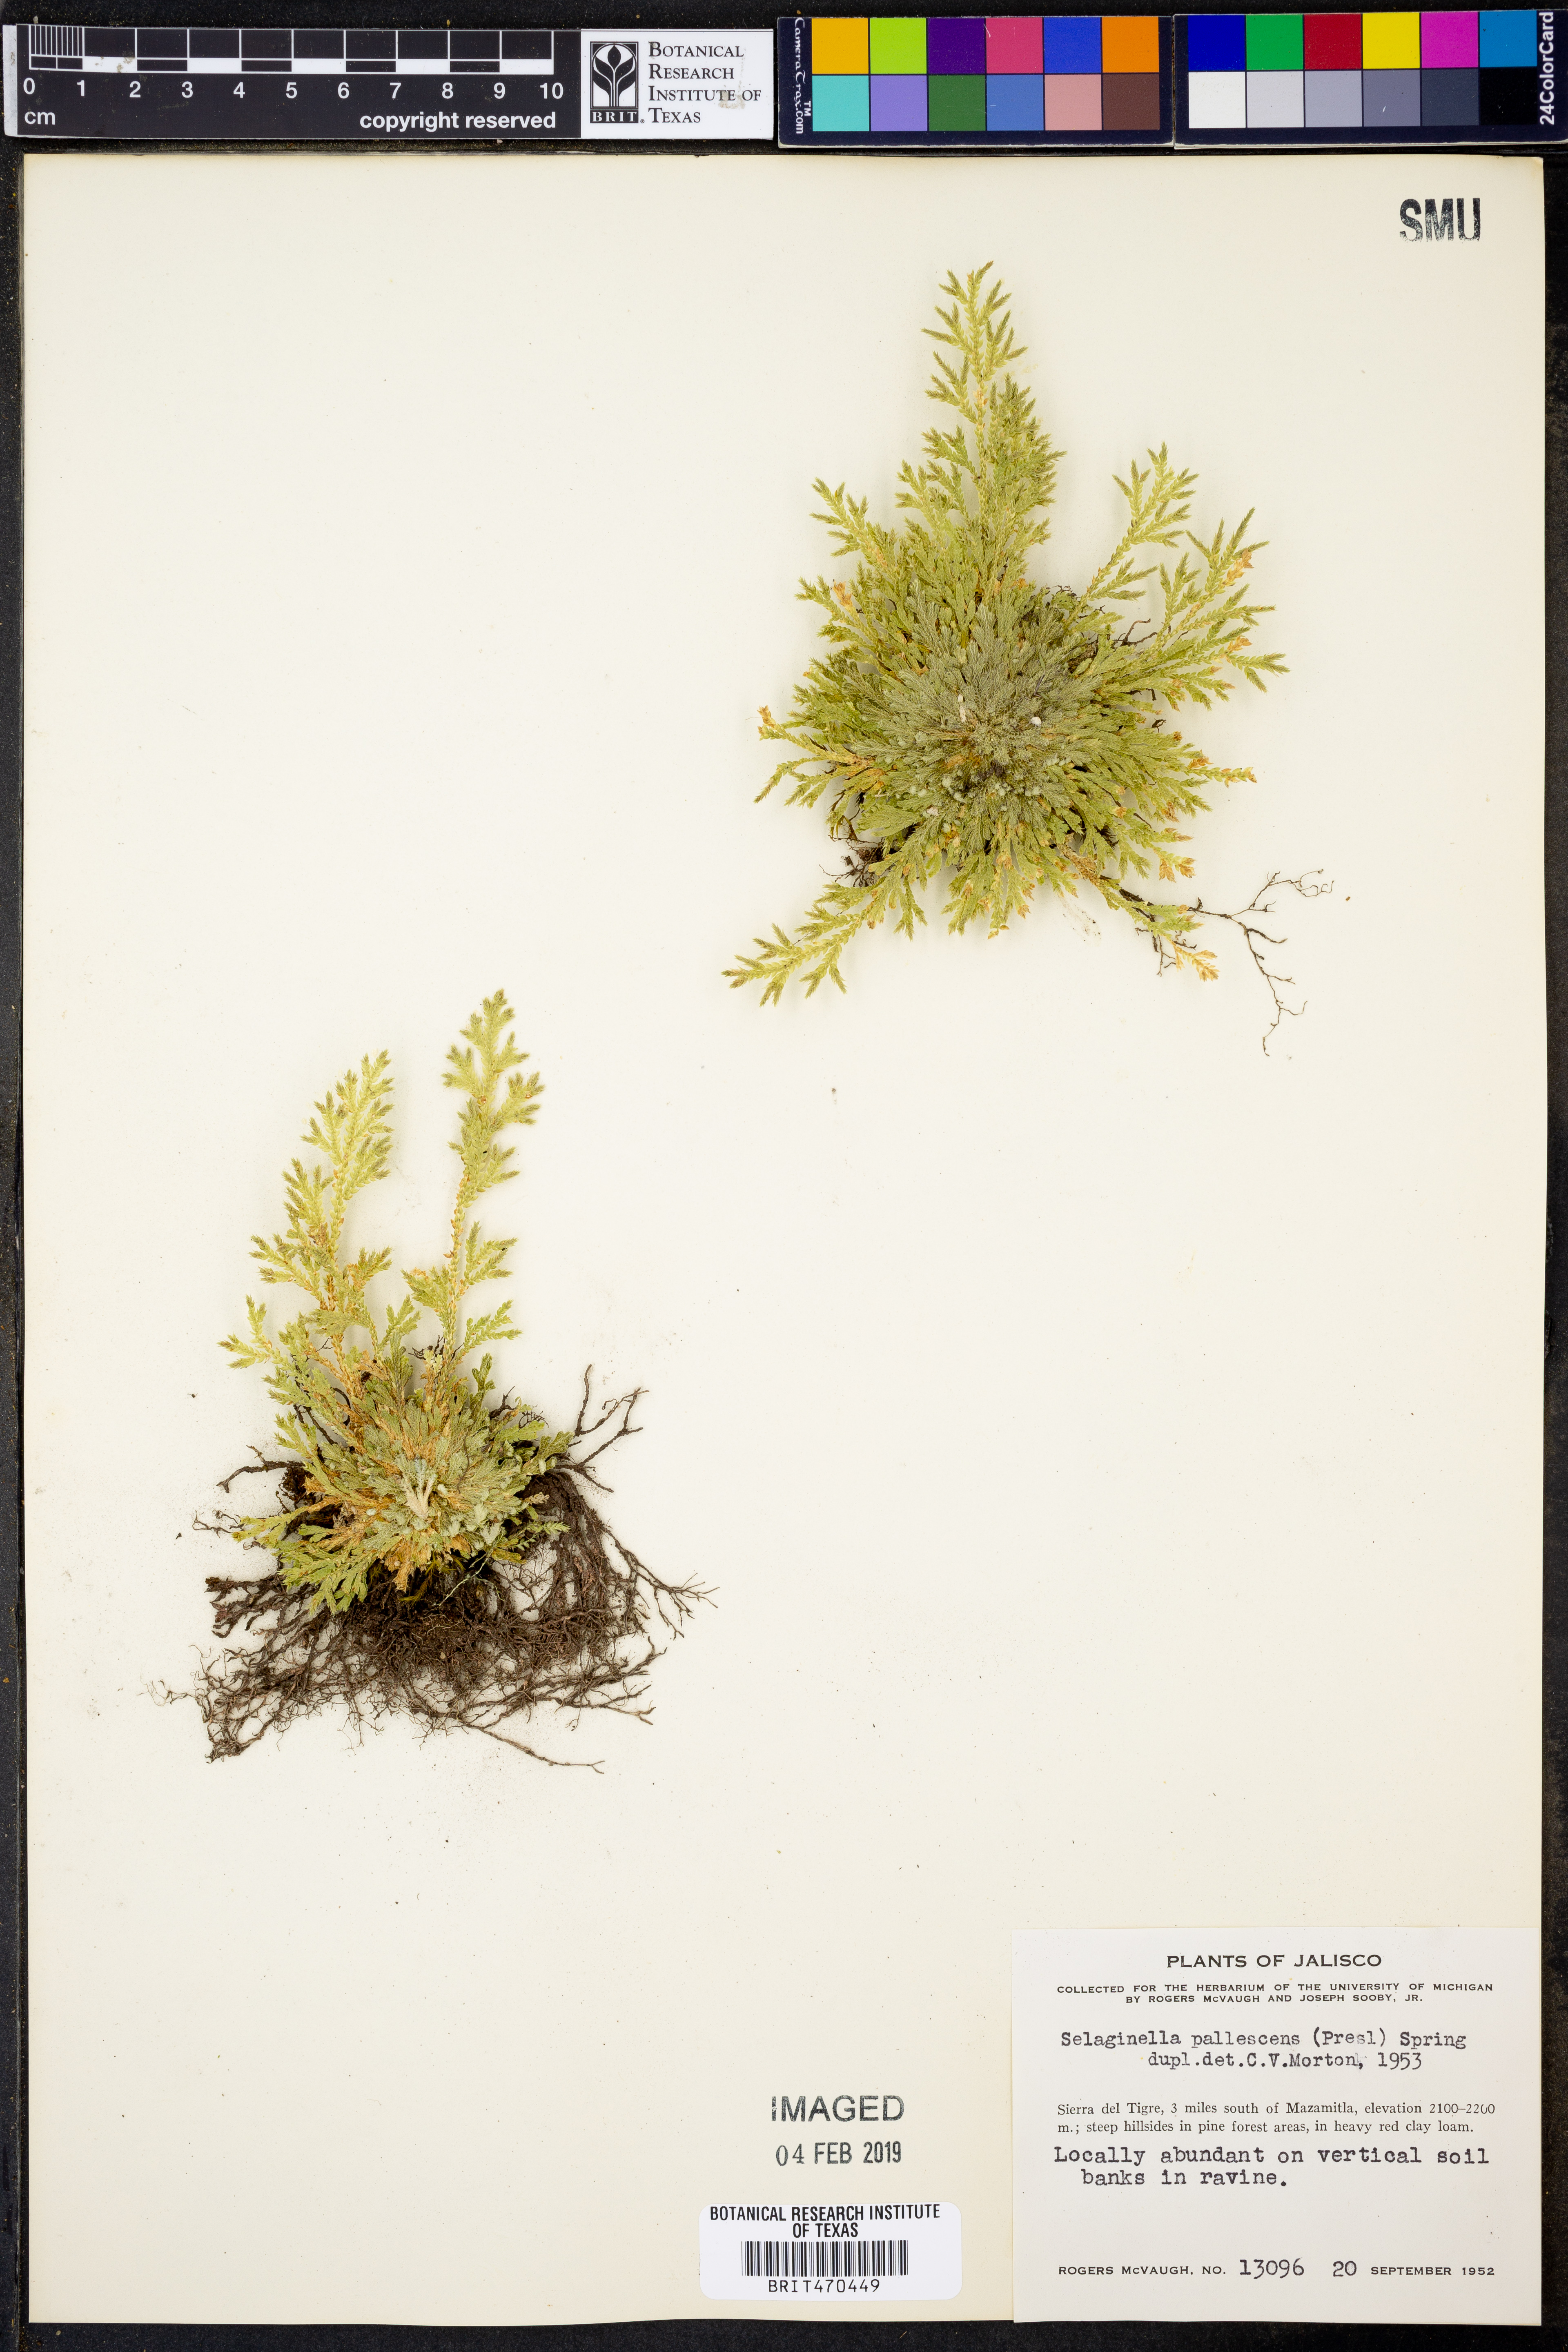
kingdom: Plantae
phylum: Tracheophyta
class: Lycopodiopsida
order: Selaginellales
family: Selaginellaceae
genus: Selaginella
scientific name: Selaginella pallescens
